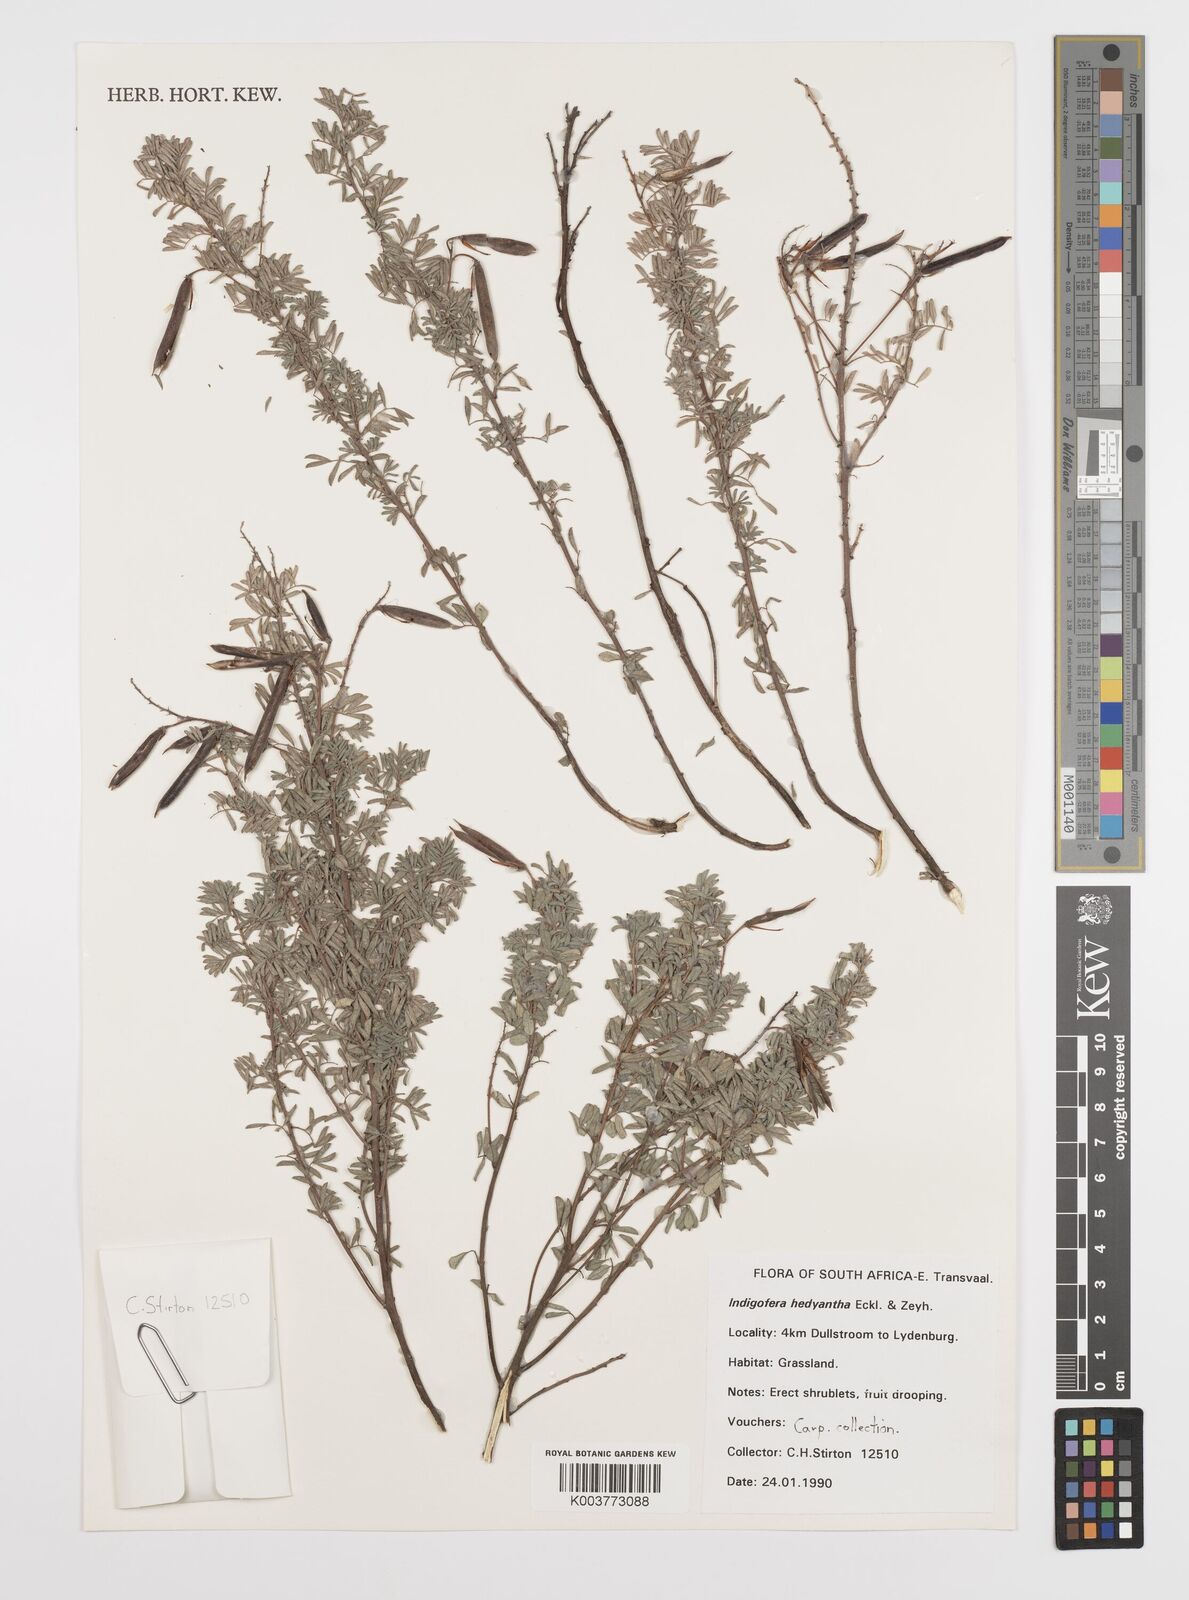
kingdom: Plantae
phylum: Tracheophyta
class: Magnoliopsida
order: Fabales
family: Fabaceae
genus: Indigofera
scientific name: Indigofera
